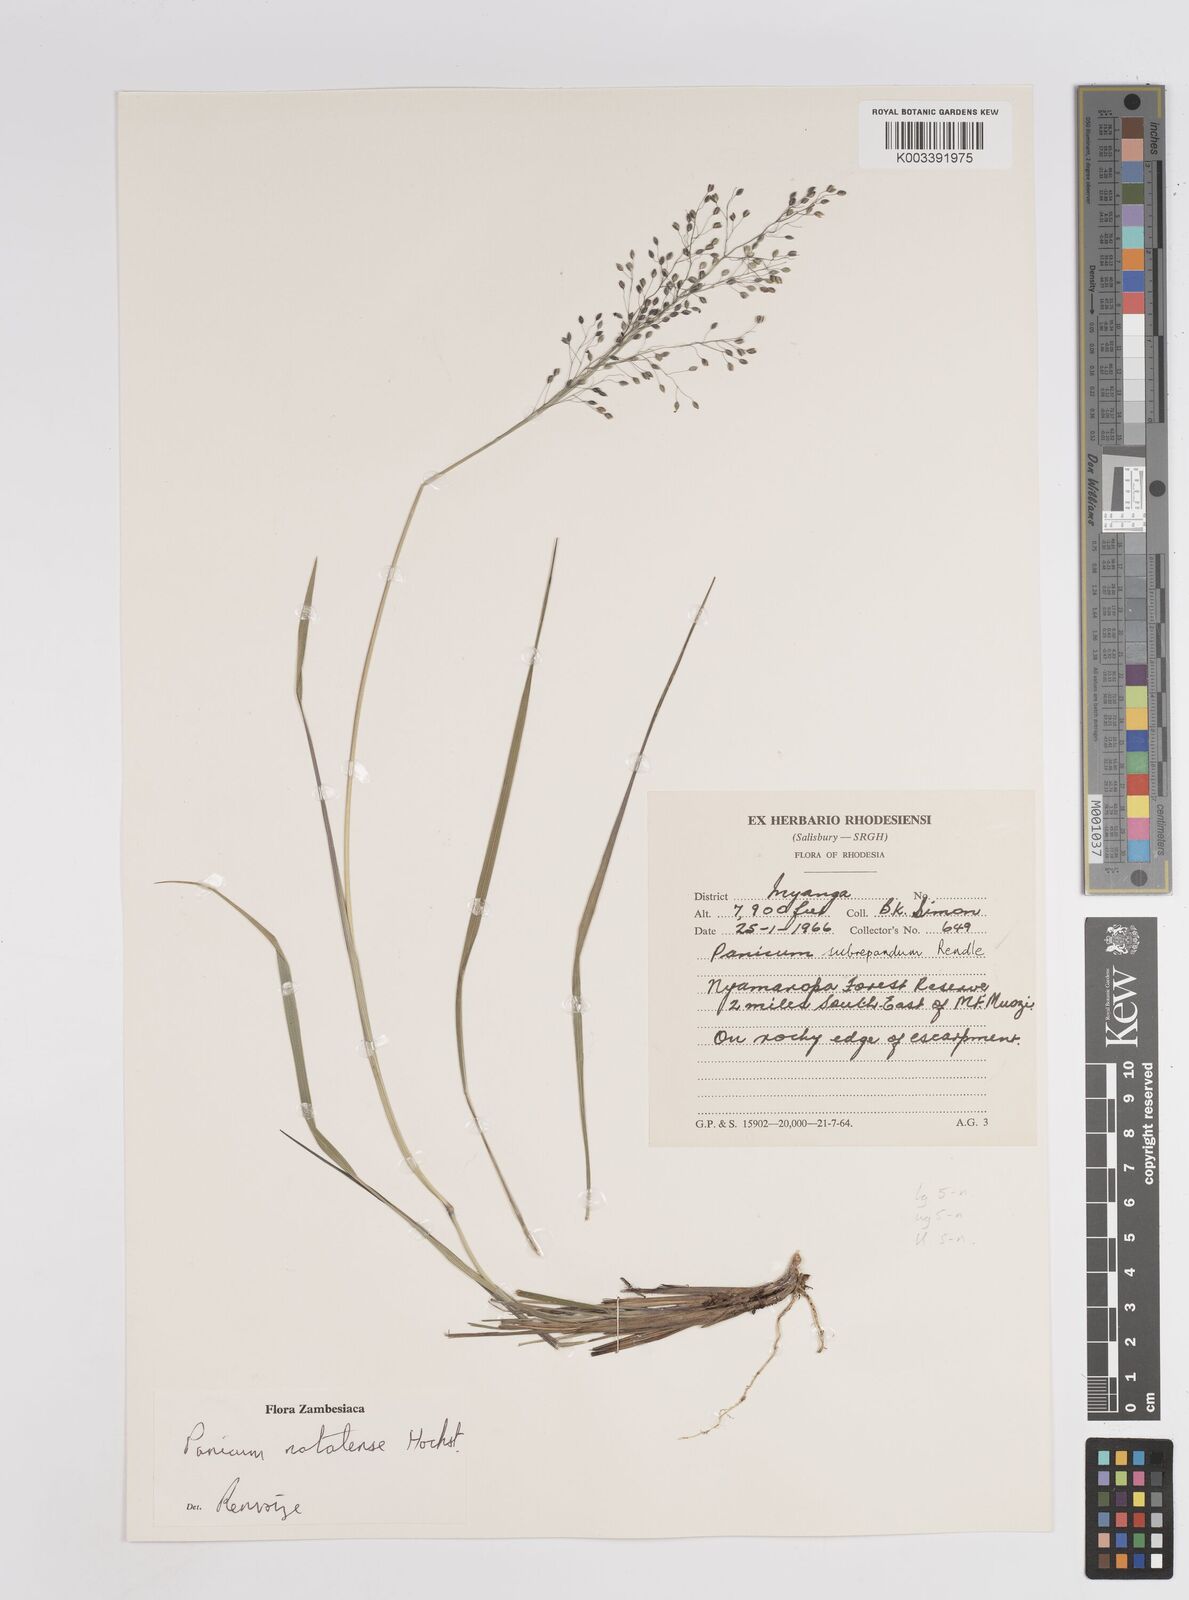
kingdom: Plantae
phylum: Tracheophyta
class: Liliopsida
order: Poales
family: Poaceae
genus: Trichanthecium
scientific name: Trichanthecium natalense
